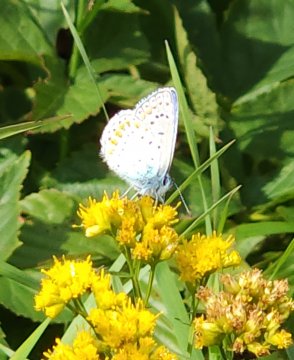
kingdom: Animalia
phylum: Arthropoda
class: Insecta
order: Lepidoptera
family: Lycaenidae
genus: Polyommatus
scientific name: Polyommatus icarus
